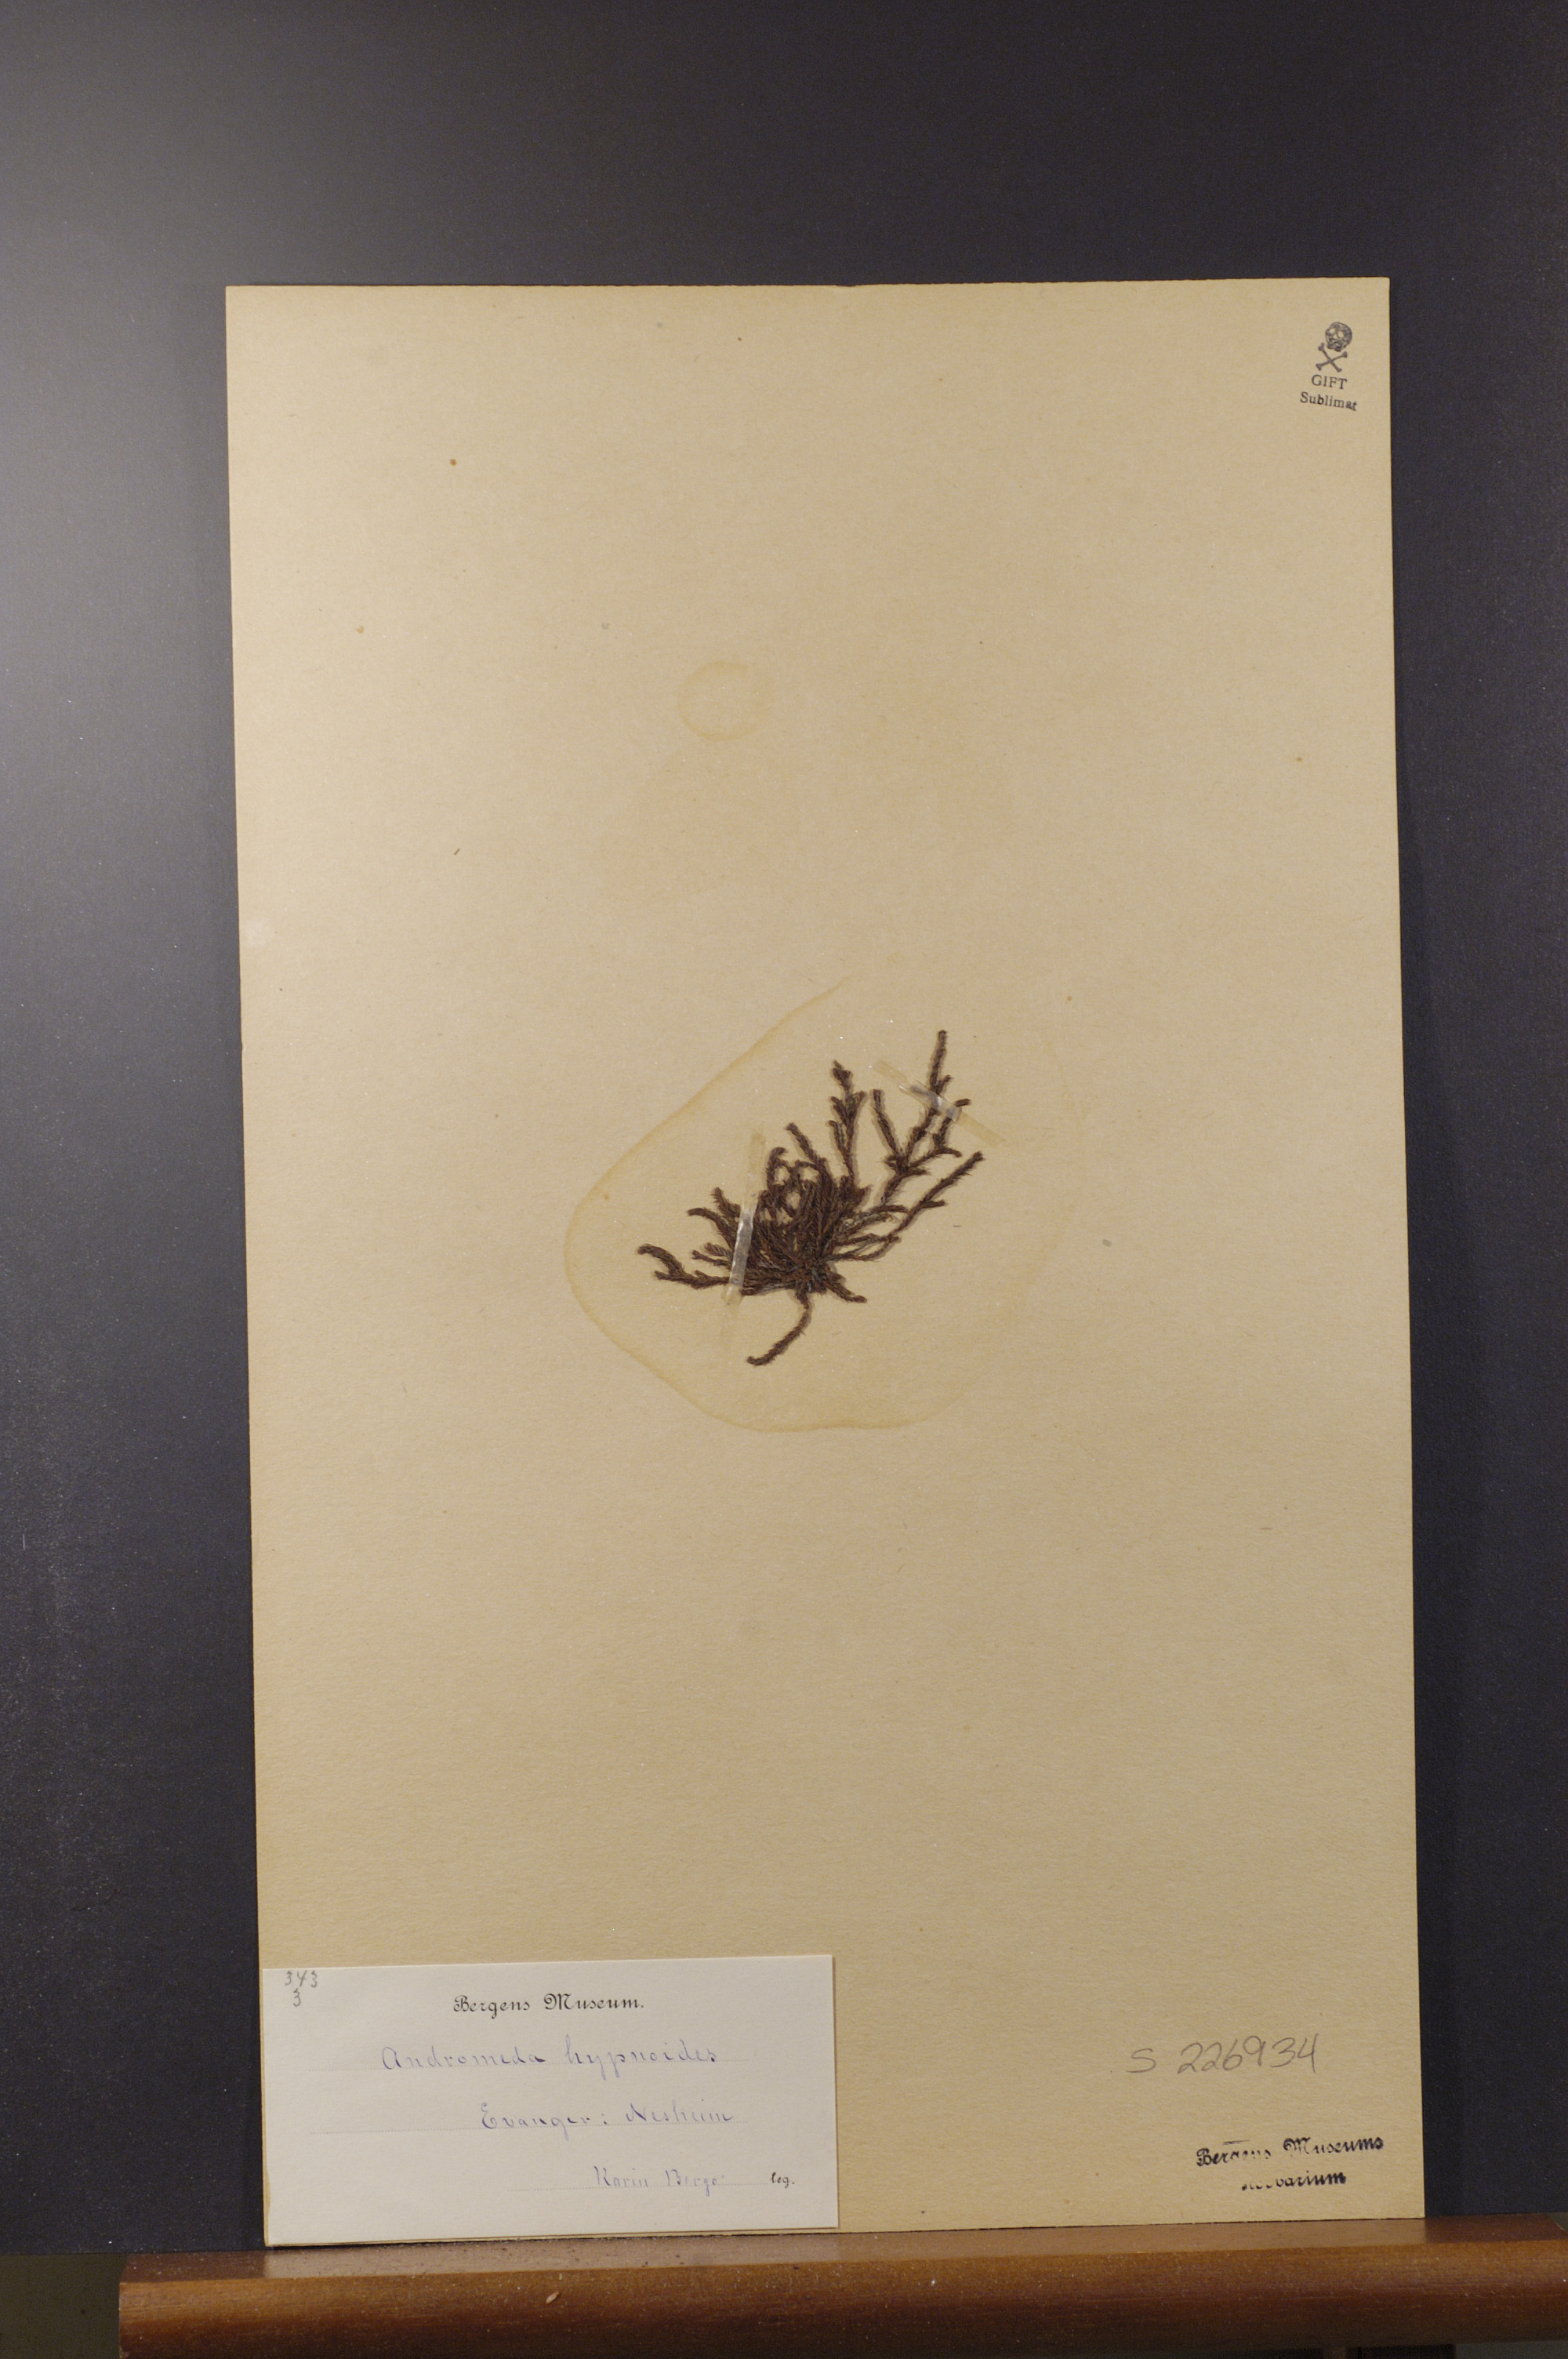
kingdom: Plantae
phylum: Tracheophyta
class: Magnoliopsida
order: Ericales
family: Ericaceae
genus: Harrimanella
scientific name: Harrimanella hypnoides
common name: Moss bell heather
